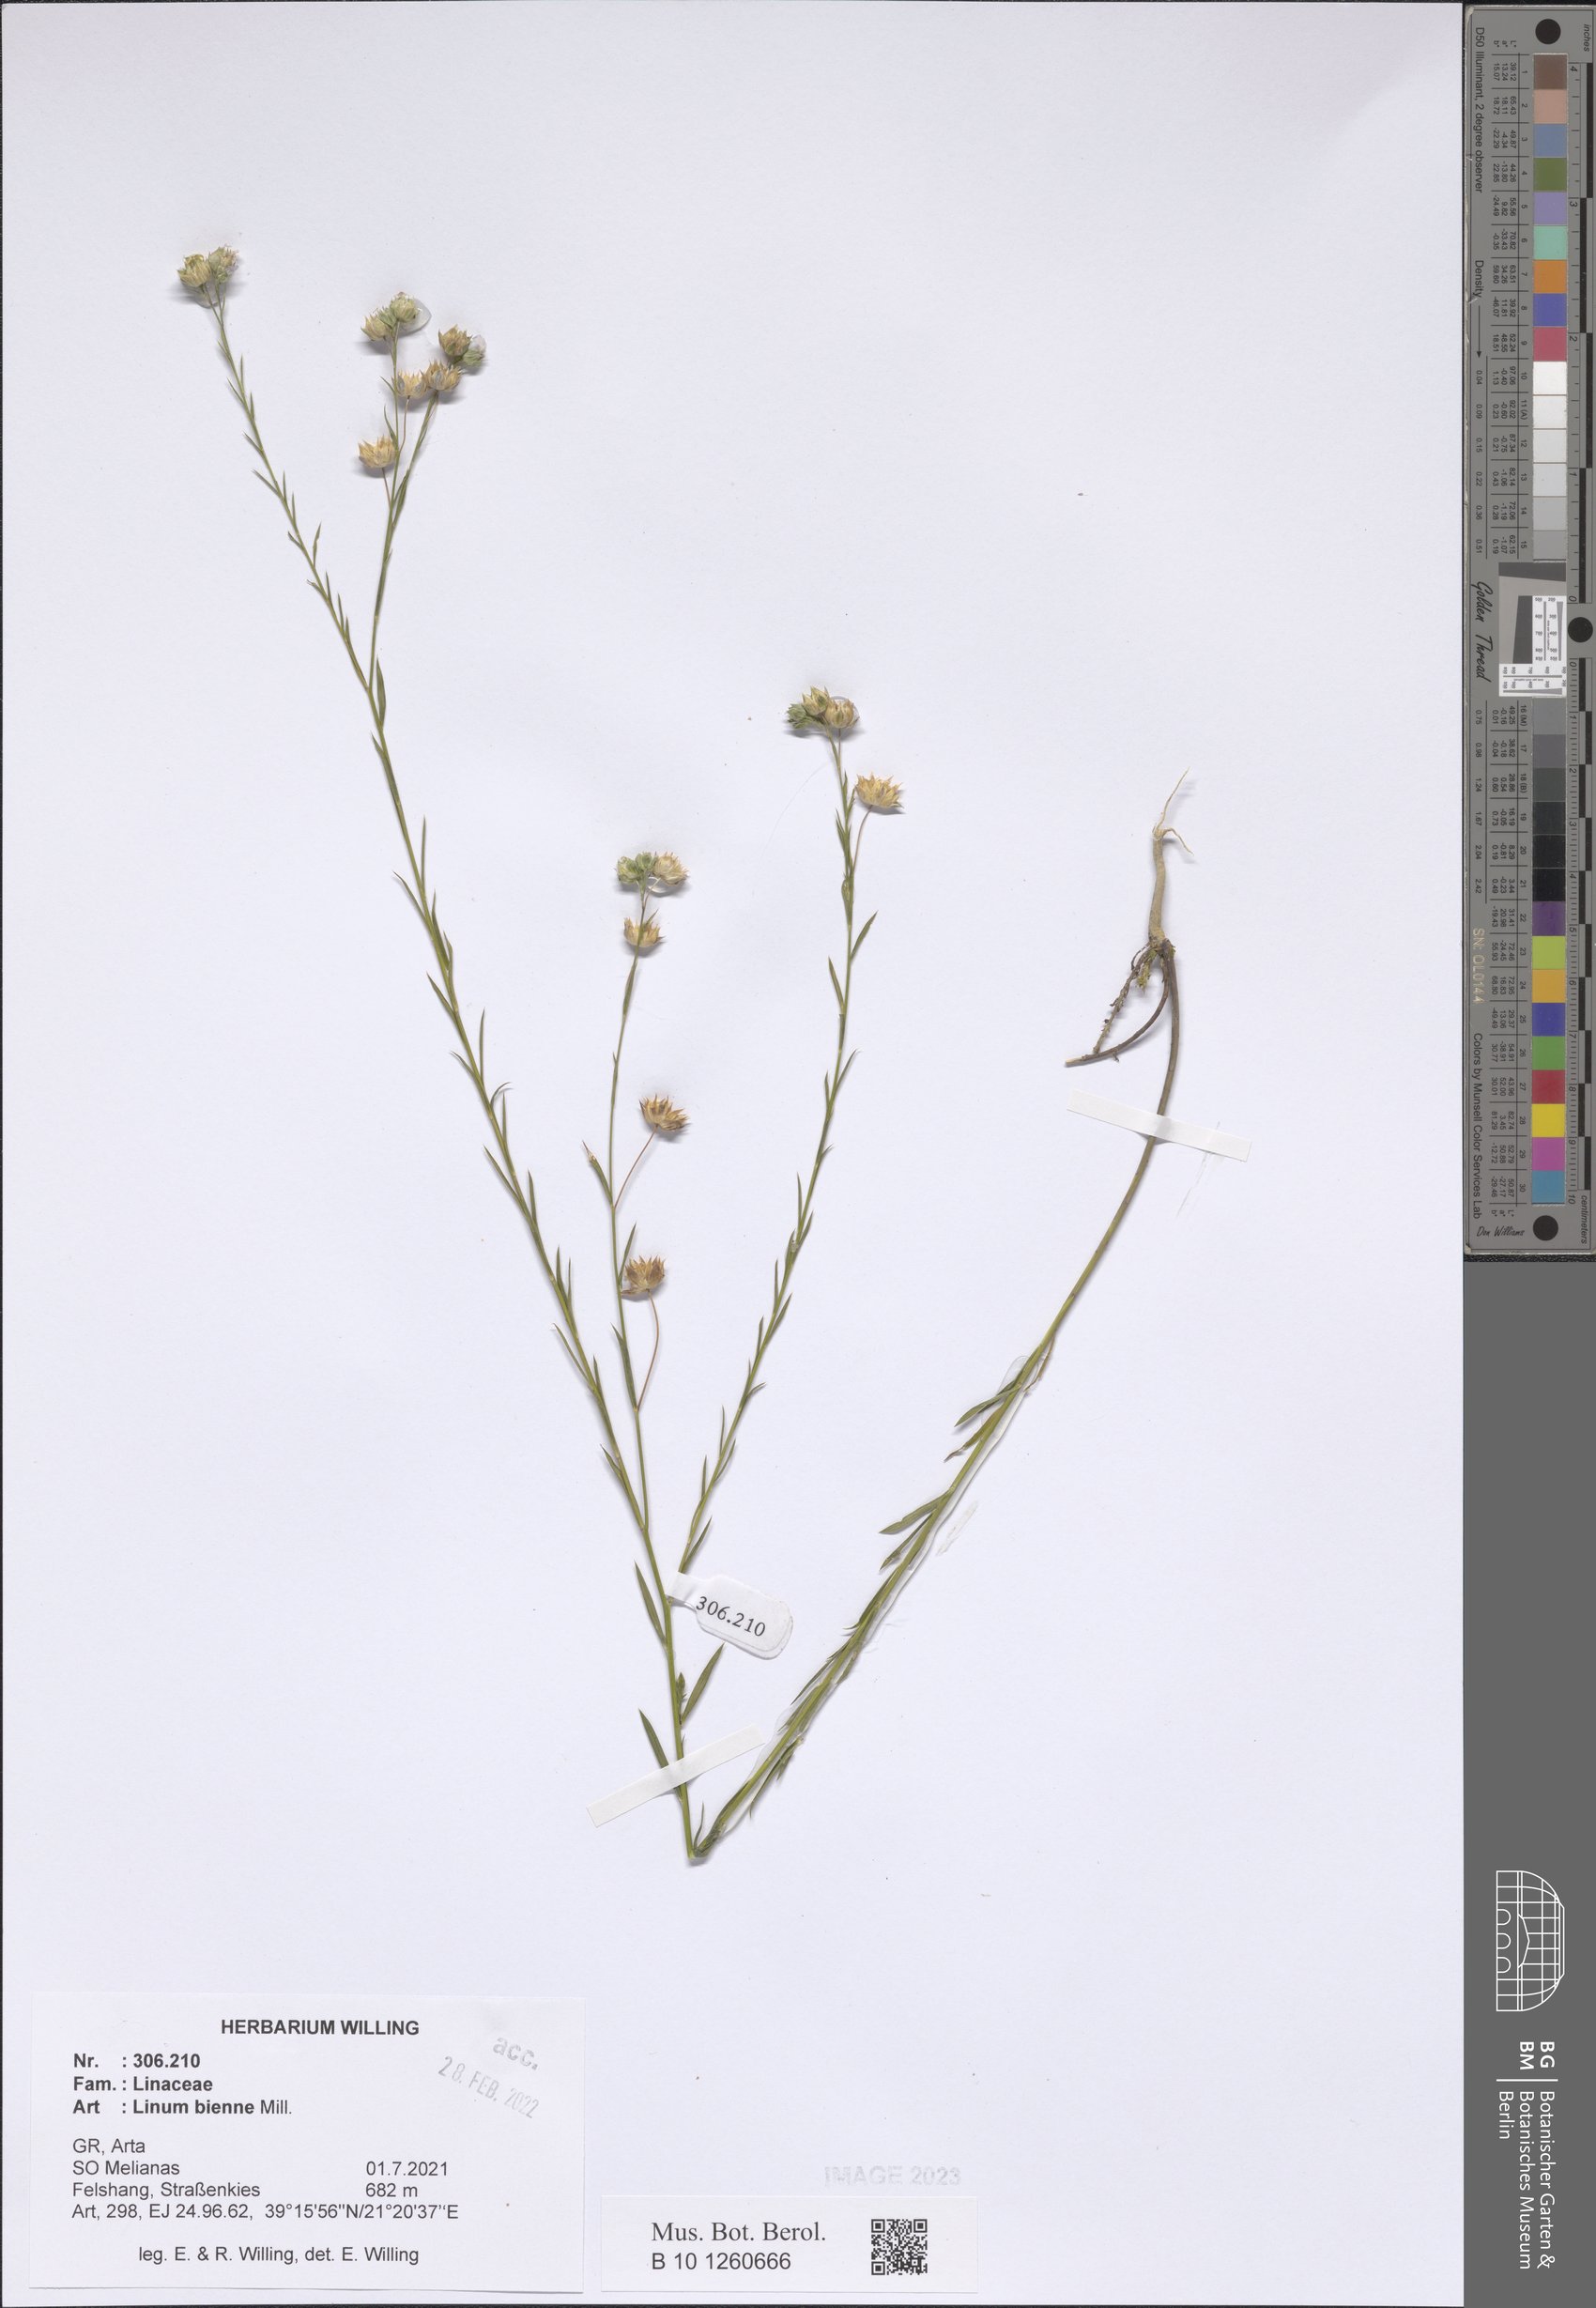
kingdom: Plantae
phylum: Tracheophyta
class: Magnoliopsida
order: Malpighiales
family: Linaceae
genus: Linum
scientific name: Linum bienne
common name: Pale flax
